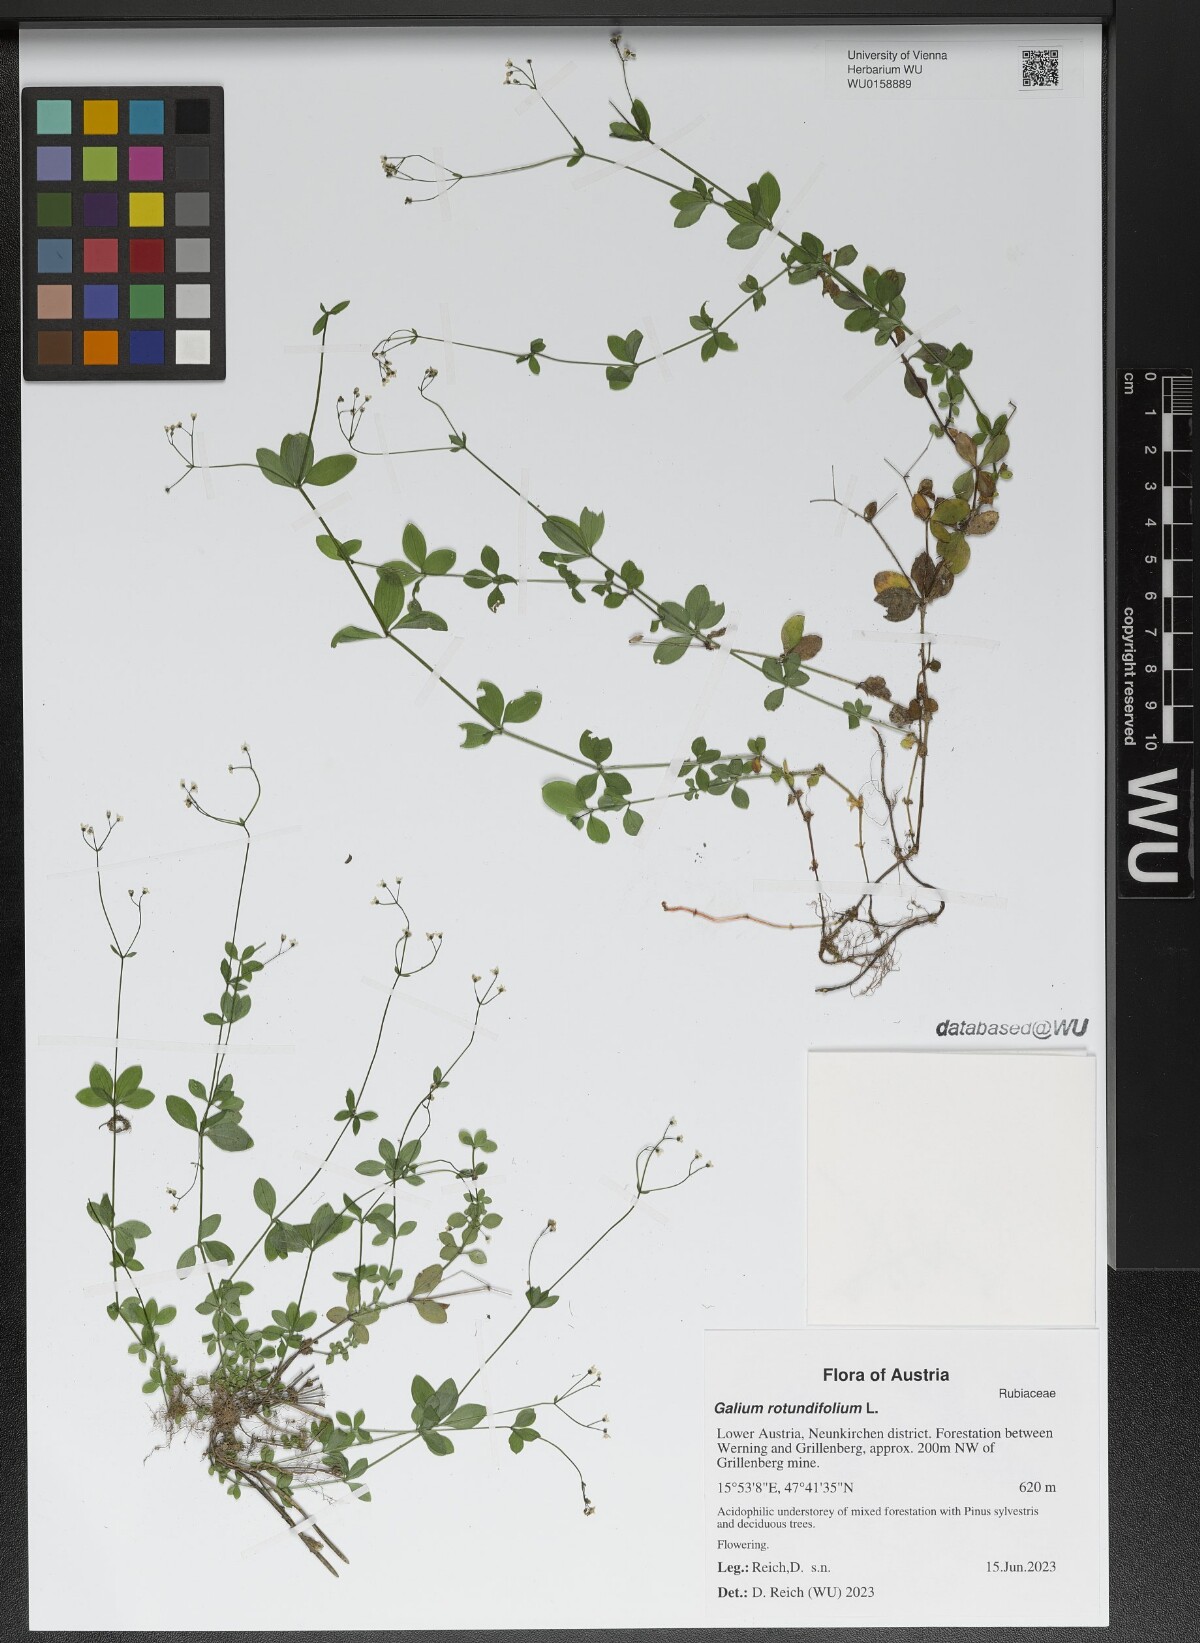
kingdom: Plantae
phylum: Tracheophyta
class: Magnoliopsida
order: Gentianales
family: Rubiaceae
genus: Galium
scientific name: Galium rotundifolium
